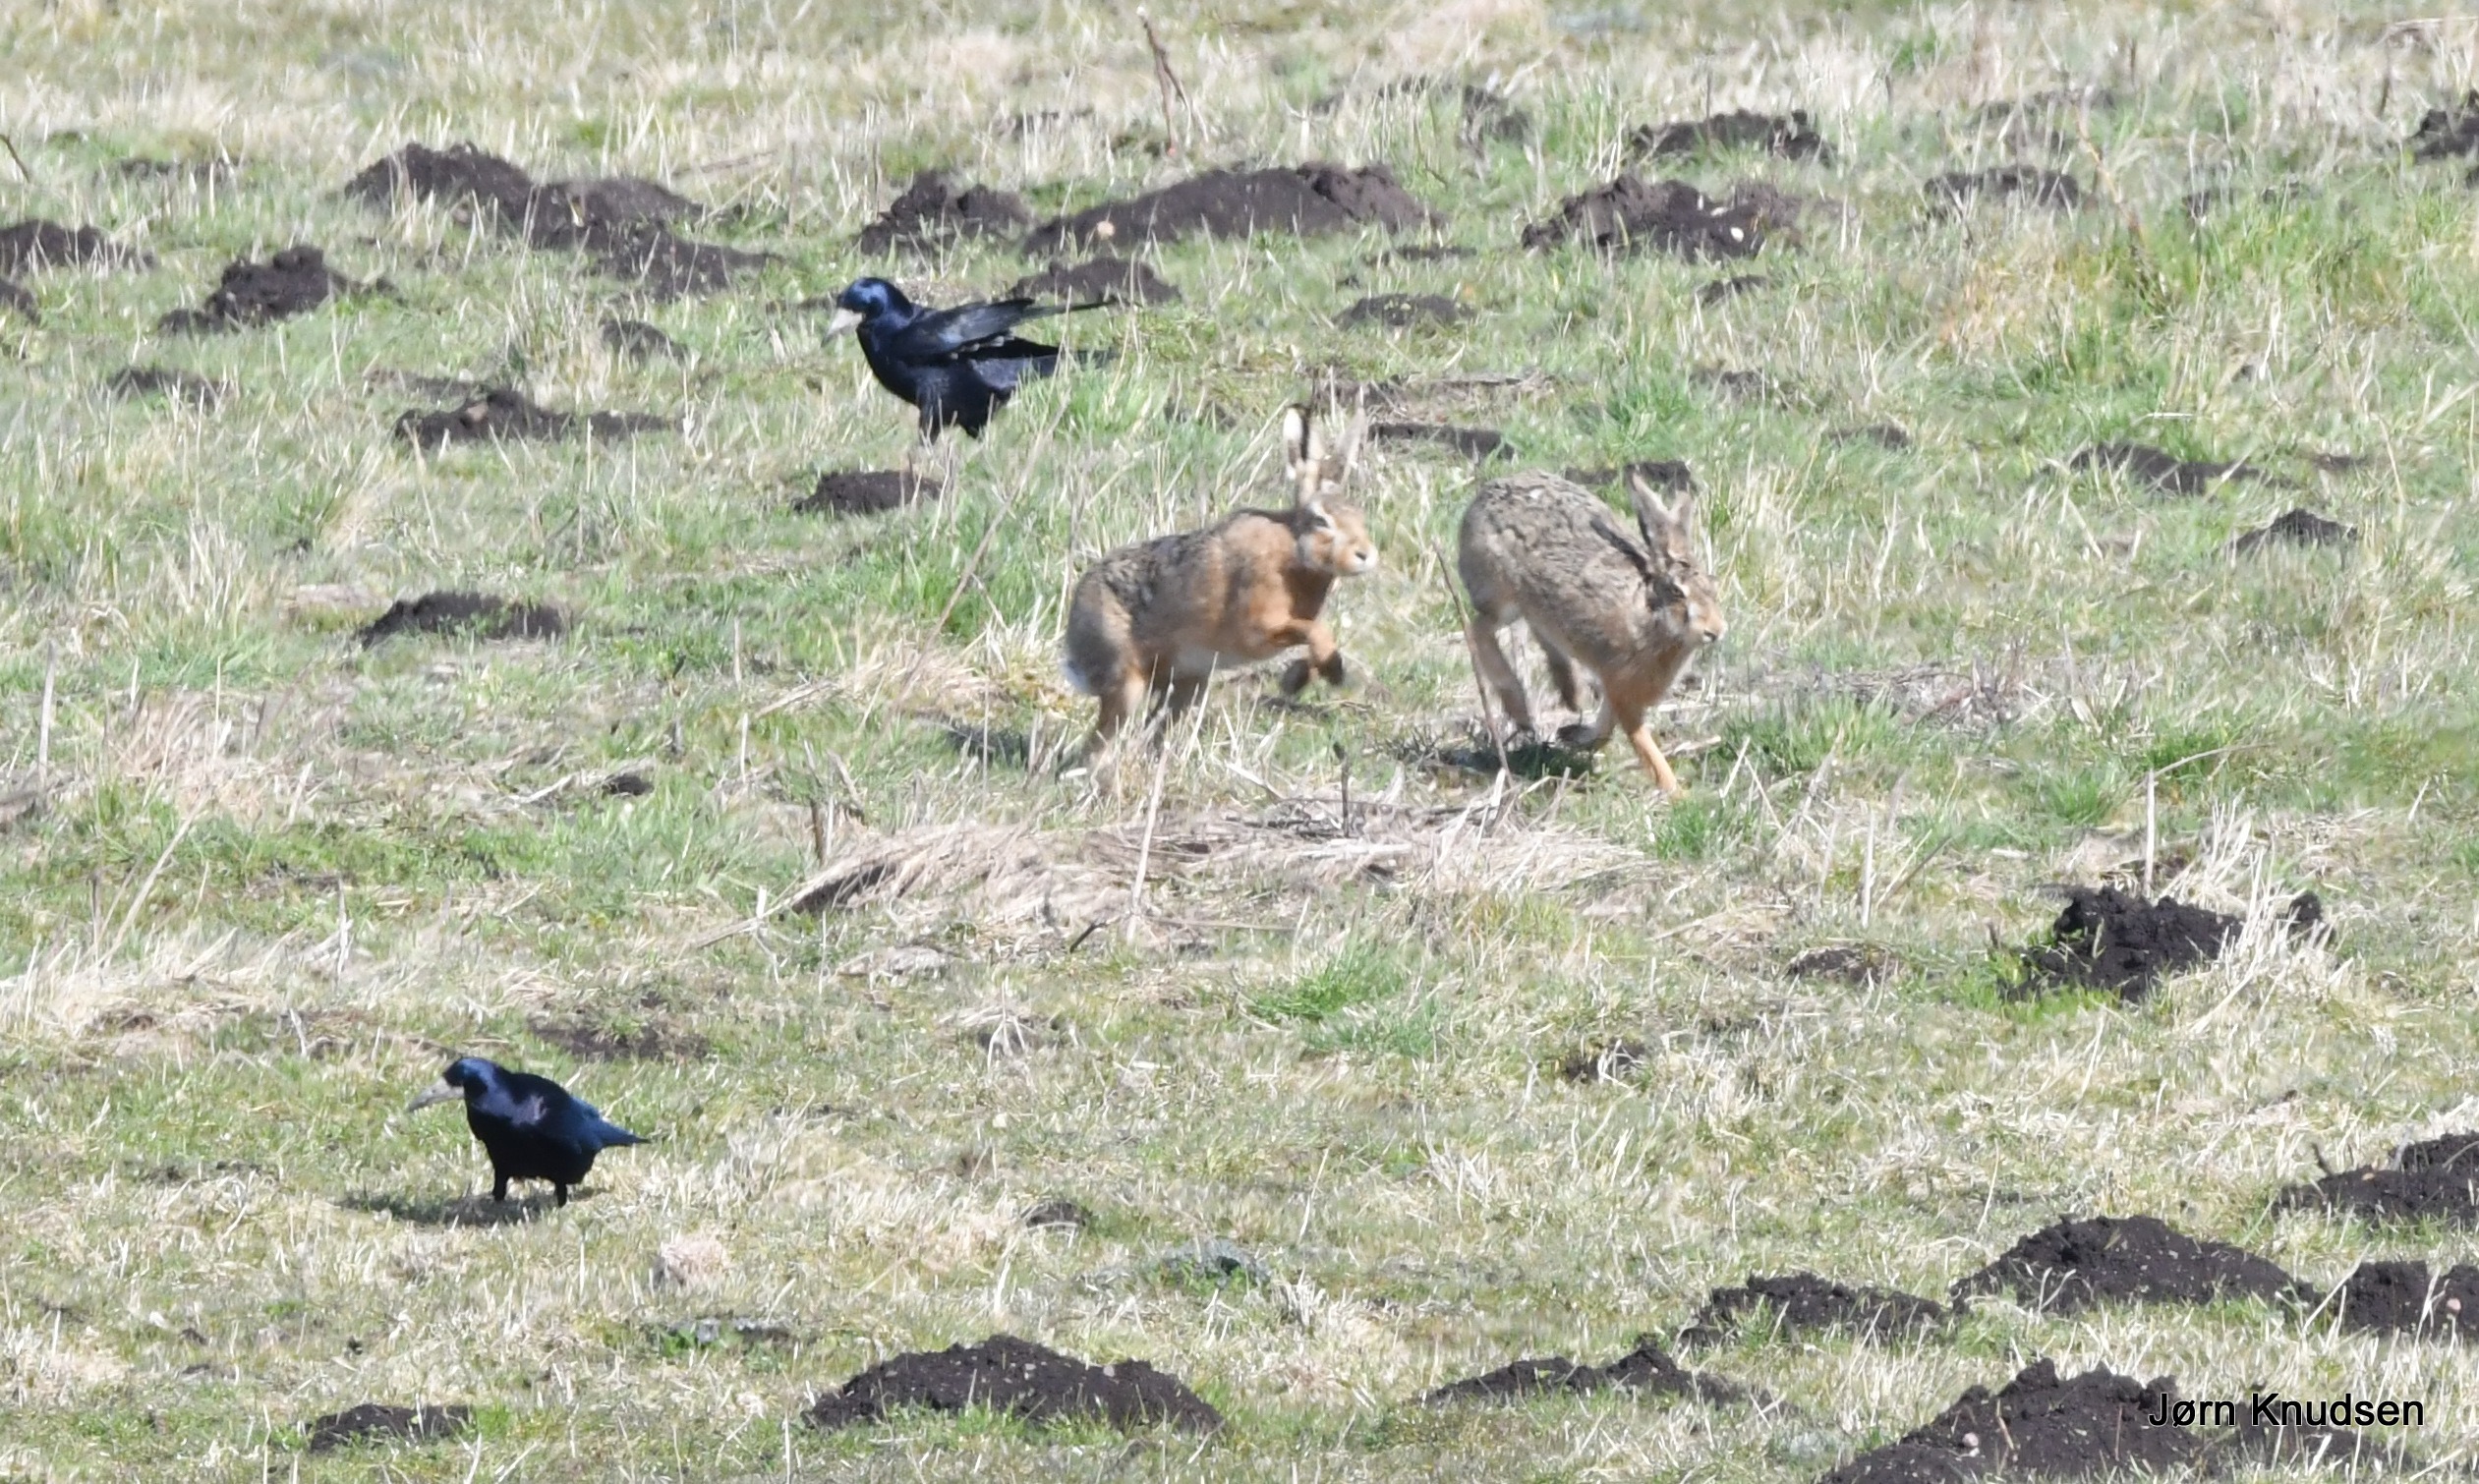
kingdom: Animalia
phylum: Chordata
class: Aves
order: Passeriformes
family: Corvidae
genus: Corvus
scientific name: Corvus frugilegus
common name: Råge
